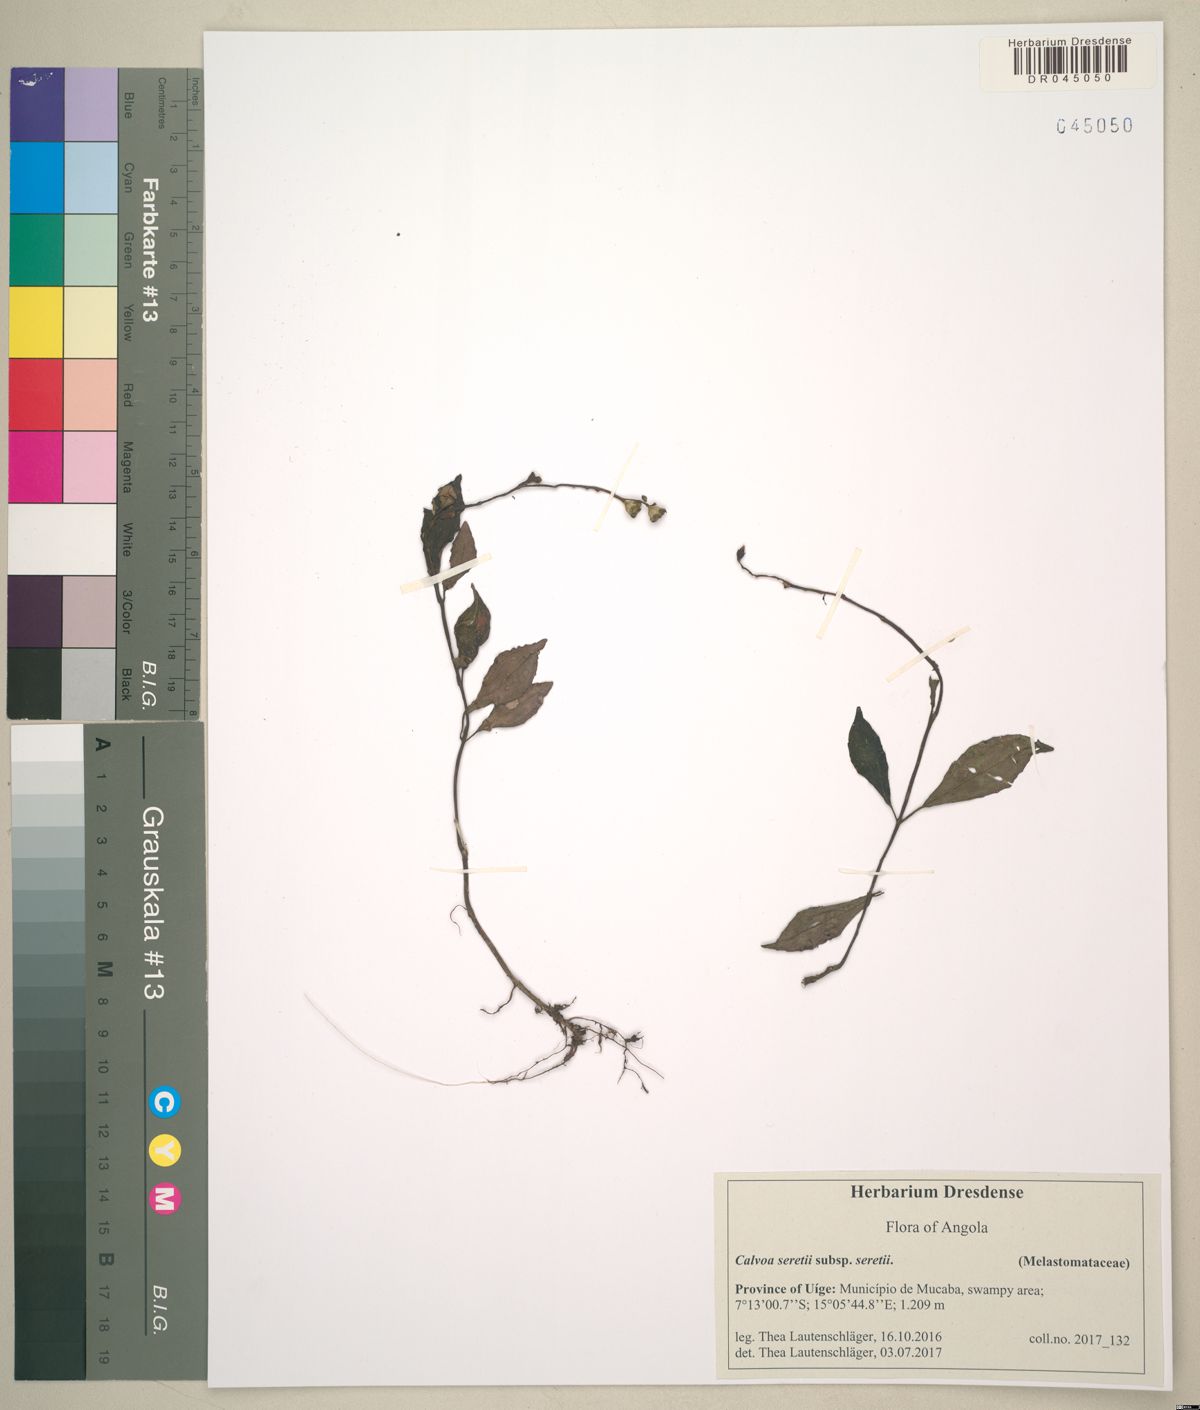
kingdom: Plantae
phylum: Tracheophyta
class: Magnoliopsida
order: Myrtales
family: Melastomataceae
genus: Calvoa
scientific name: Calvoa seretii
